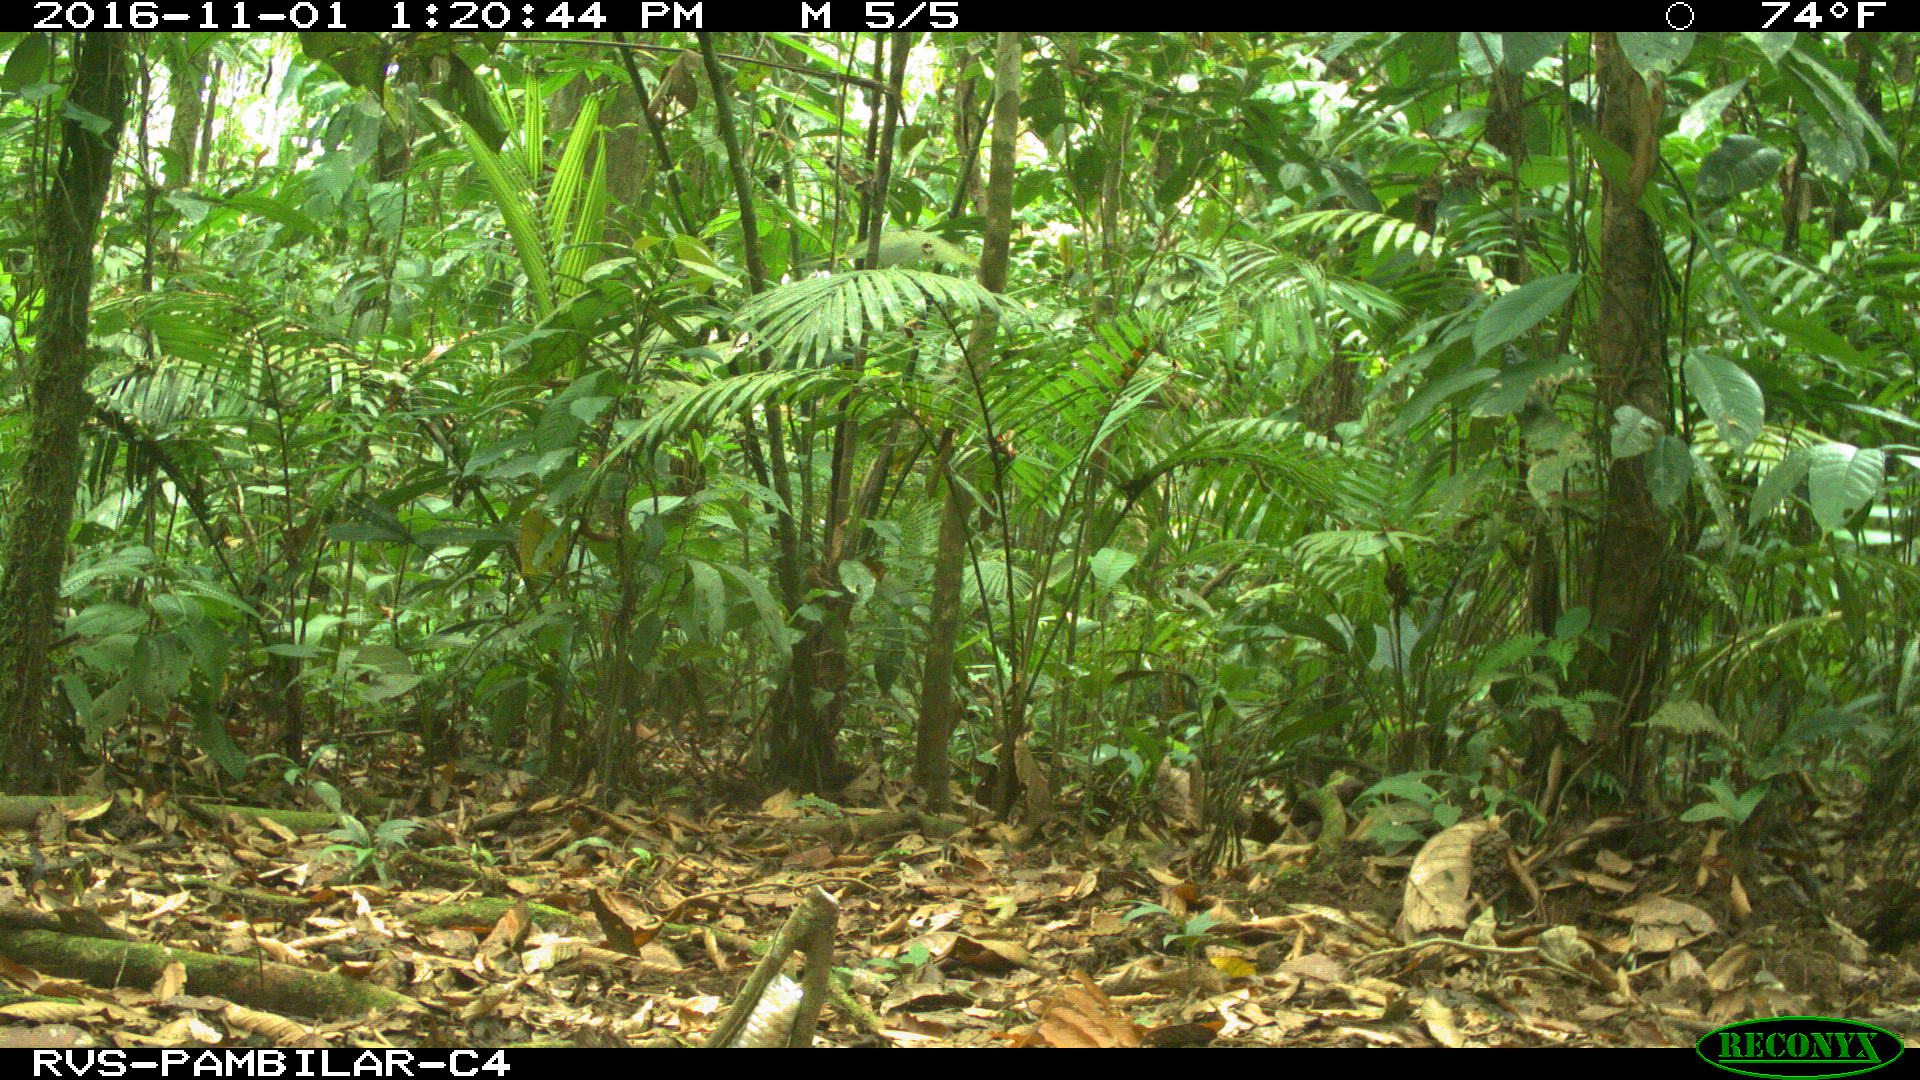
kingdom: Animalia
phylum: Chordata
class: Mammalia
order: Rodentia
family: Dasyproctidae
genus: Dasyprocta
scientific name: Dasyprocta punctata
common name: Central american agouti
